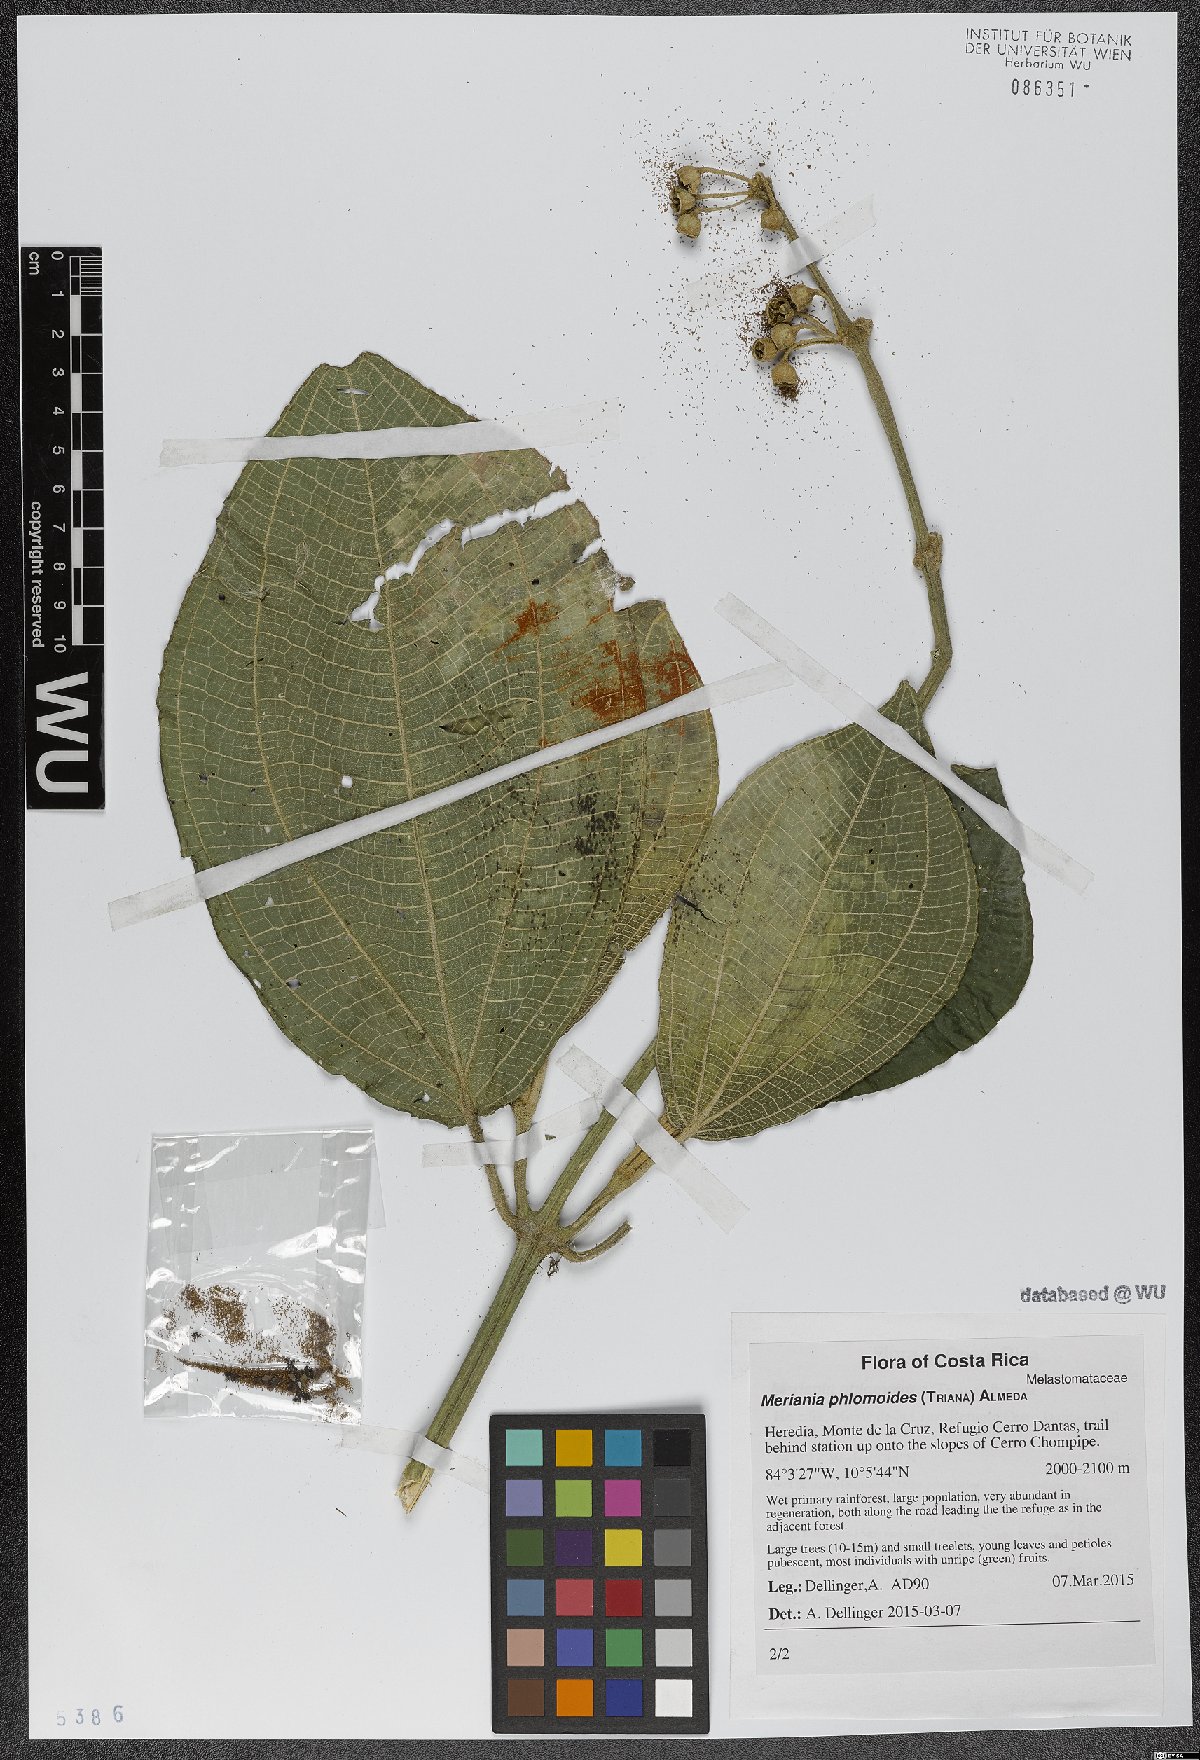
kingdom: Plantae
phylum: Tracheophyta
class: Magnoliopsida
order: Myrtales
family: Melastomataceae
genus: Meriania
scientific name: Meriania phlomoides
